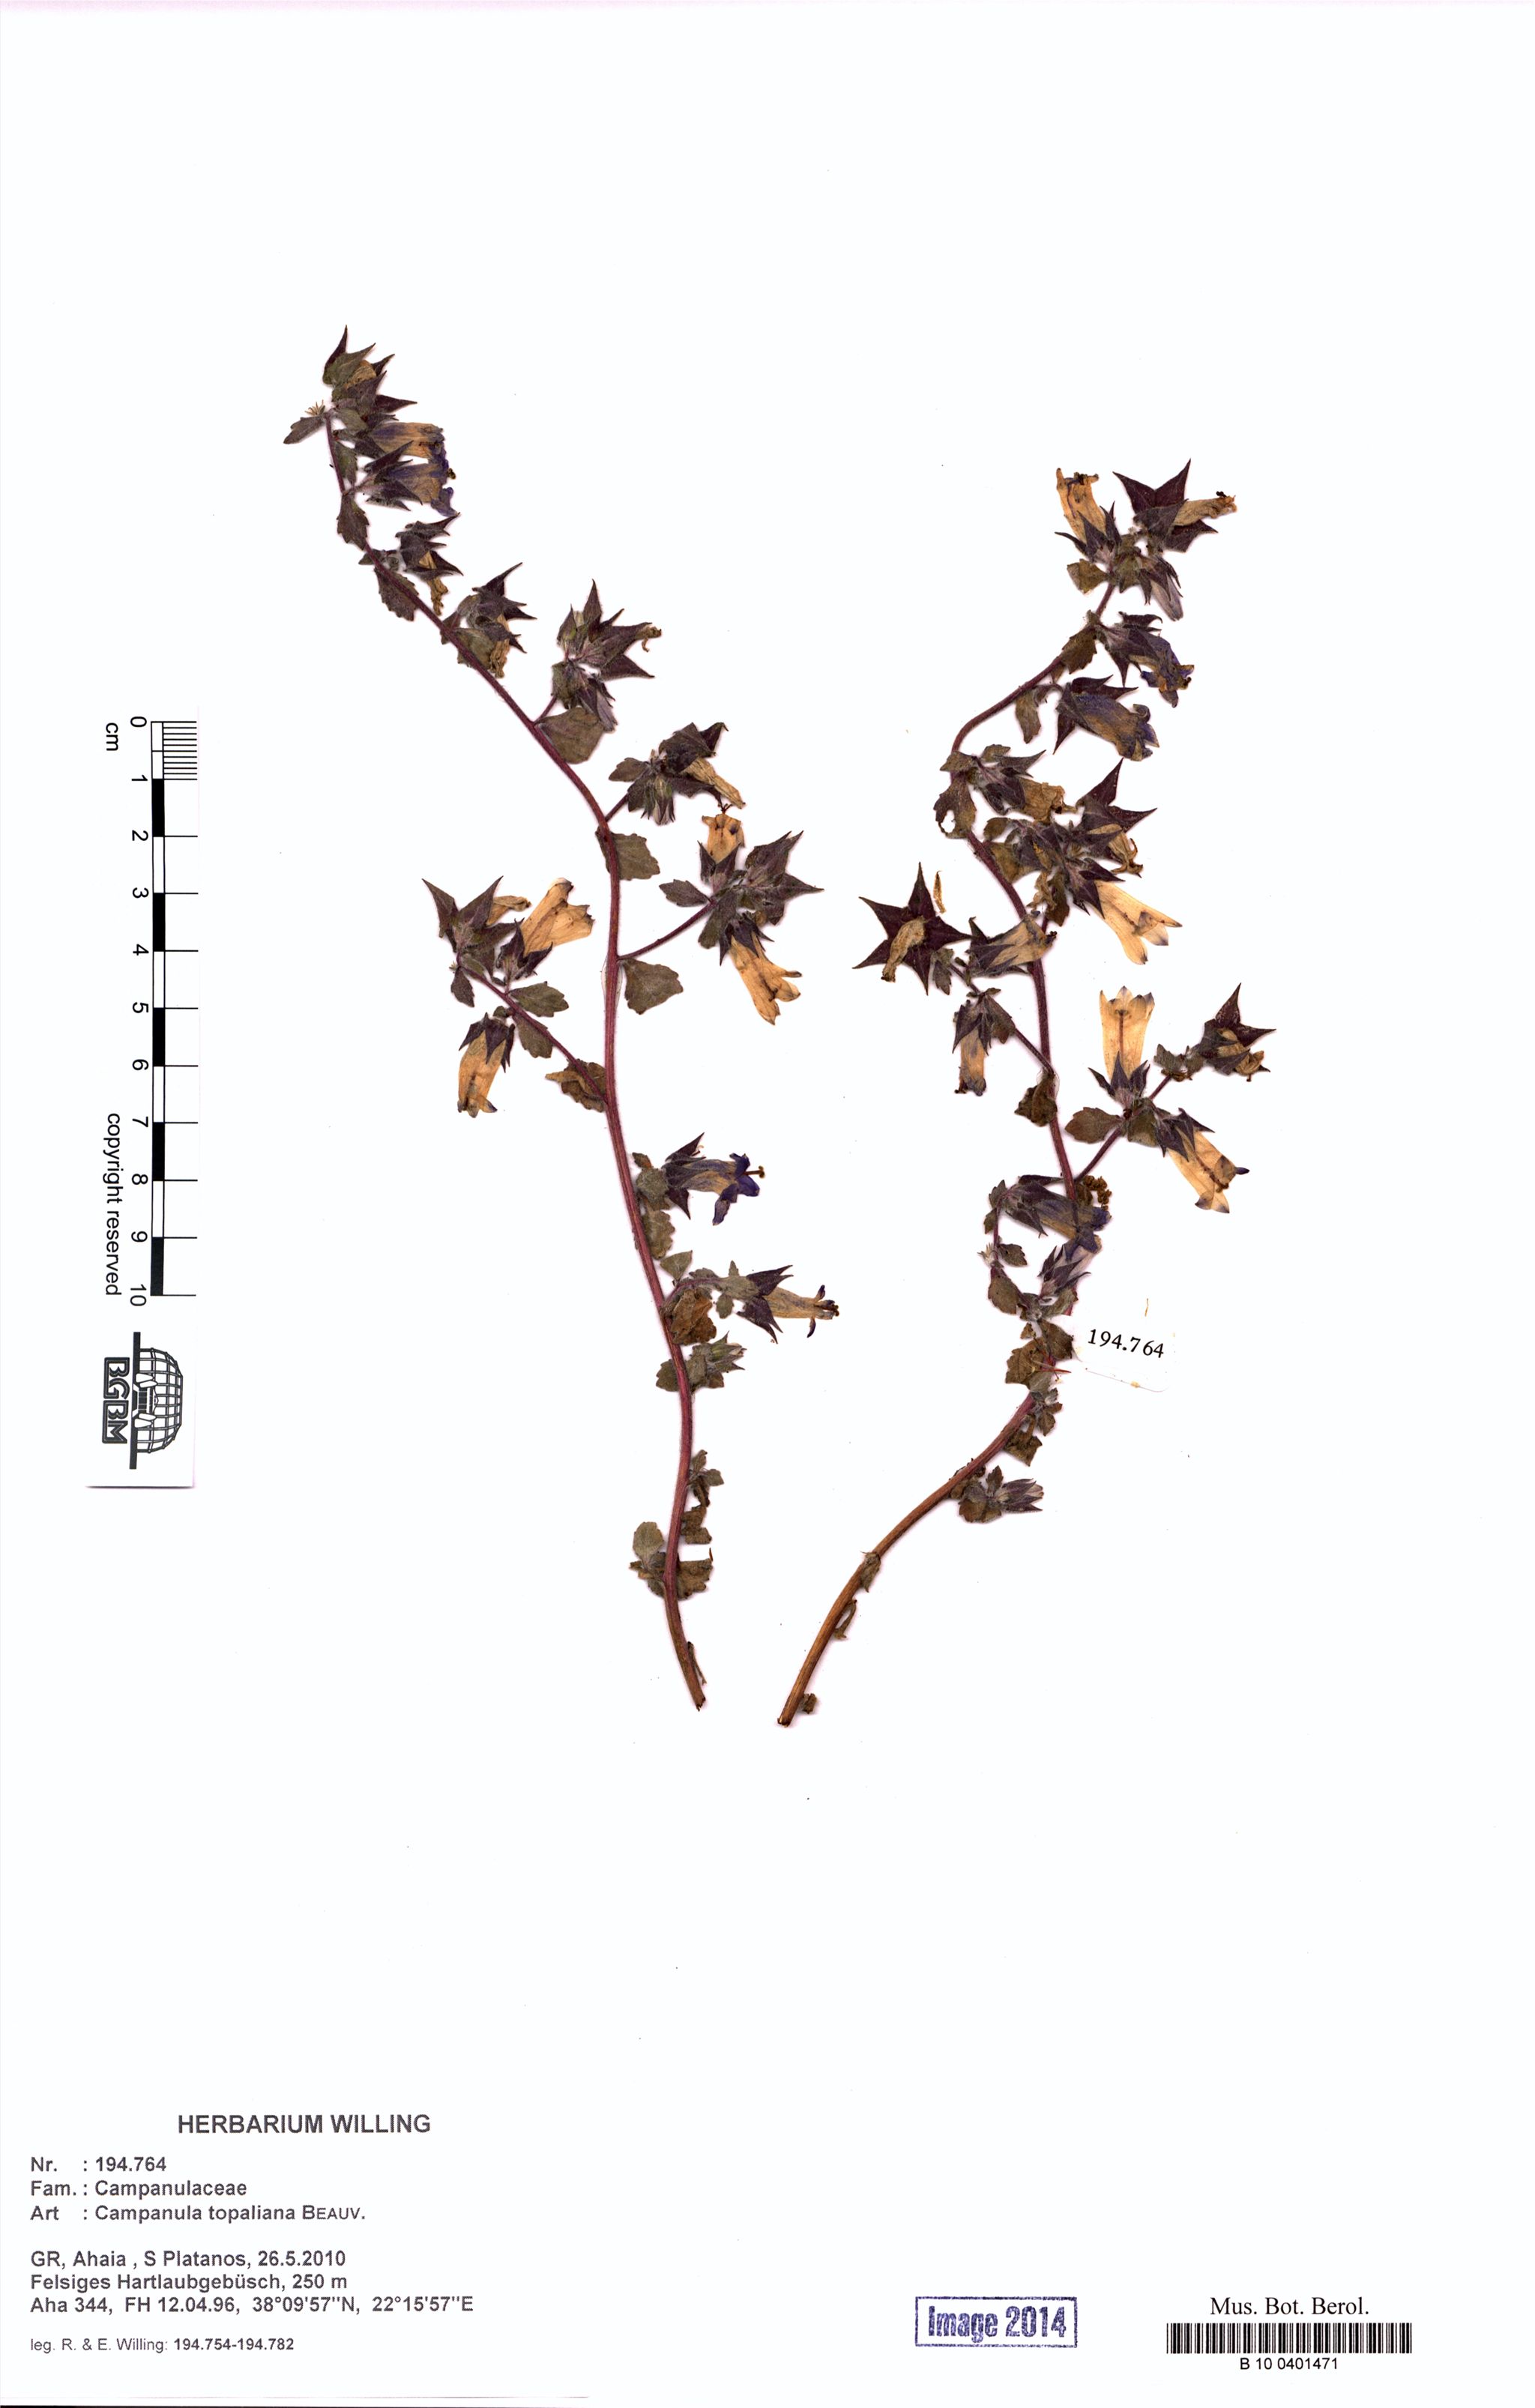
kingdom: Plantae
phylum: Tracheophyta
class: Magnoliopsida
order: Asterales
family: Campanulaceae
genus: Campanula
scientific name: Campanula topaliana
